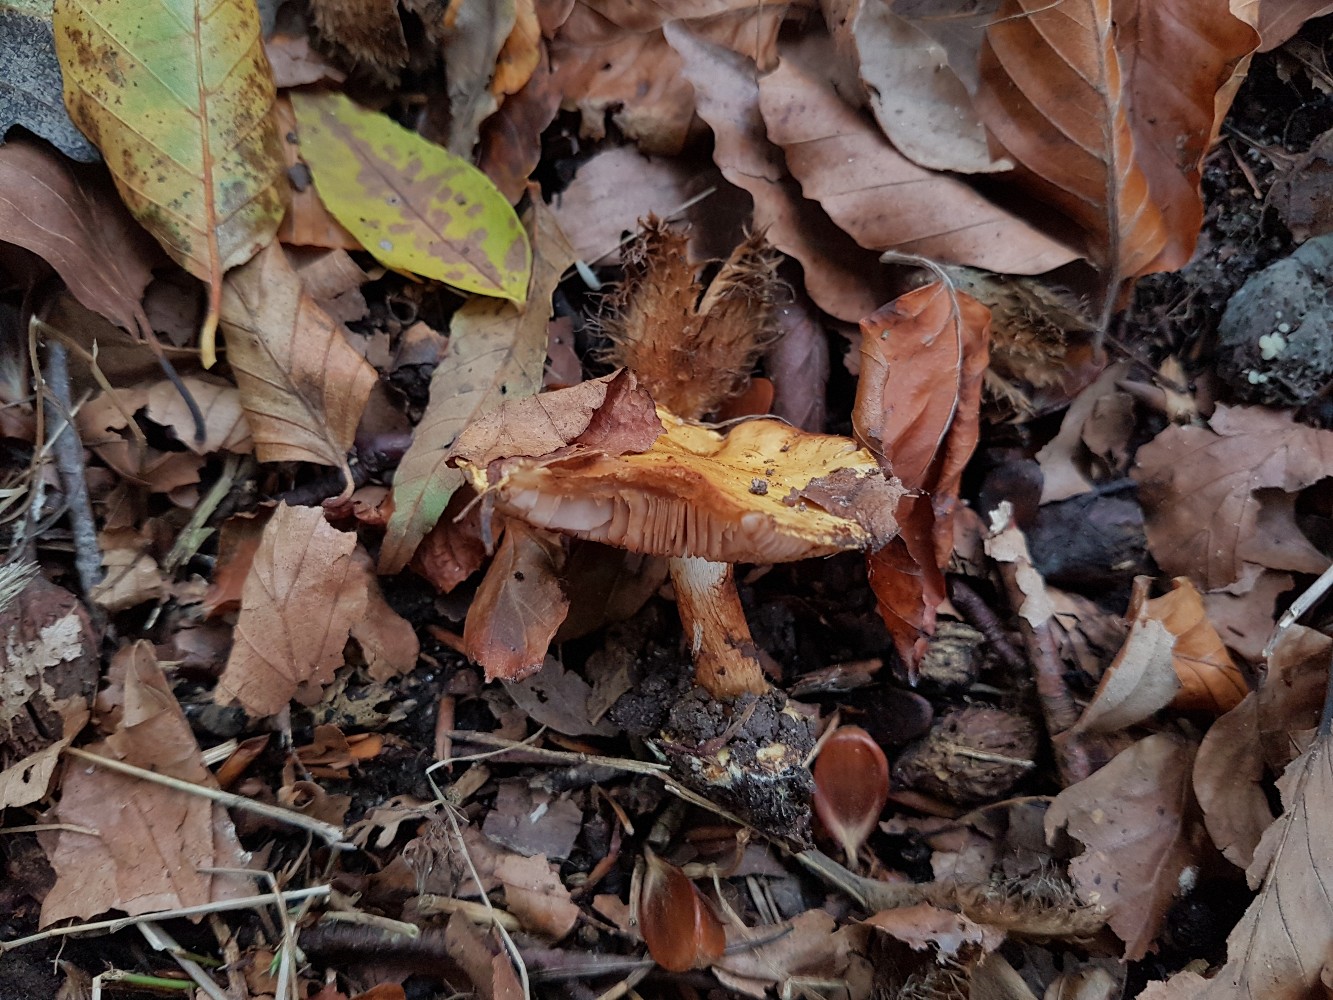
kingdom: Fungi
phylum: Basidiomycota
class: Agaricomycetes
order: Agaricales
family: Cortinariaceae
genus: Calonarius
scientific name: Calonarius callochrous
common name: lillabladet slørhat
